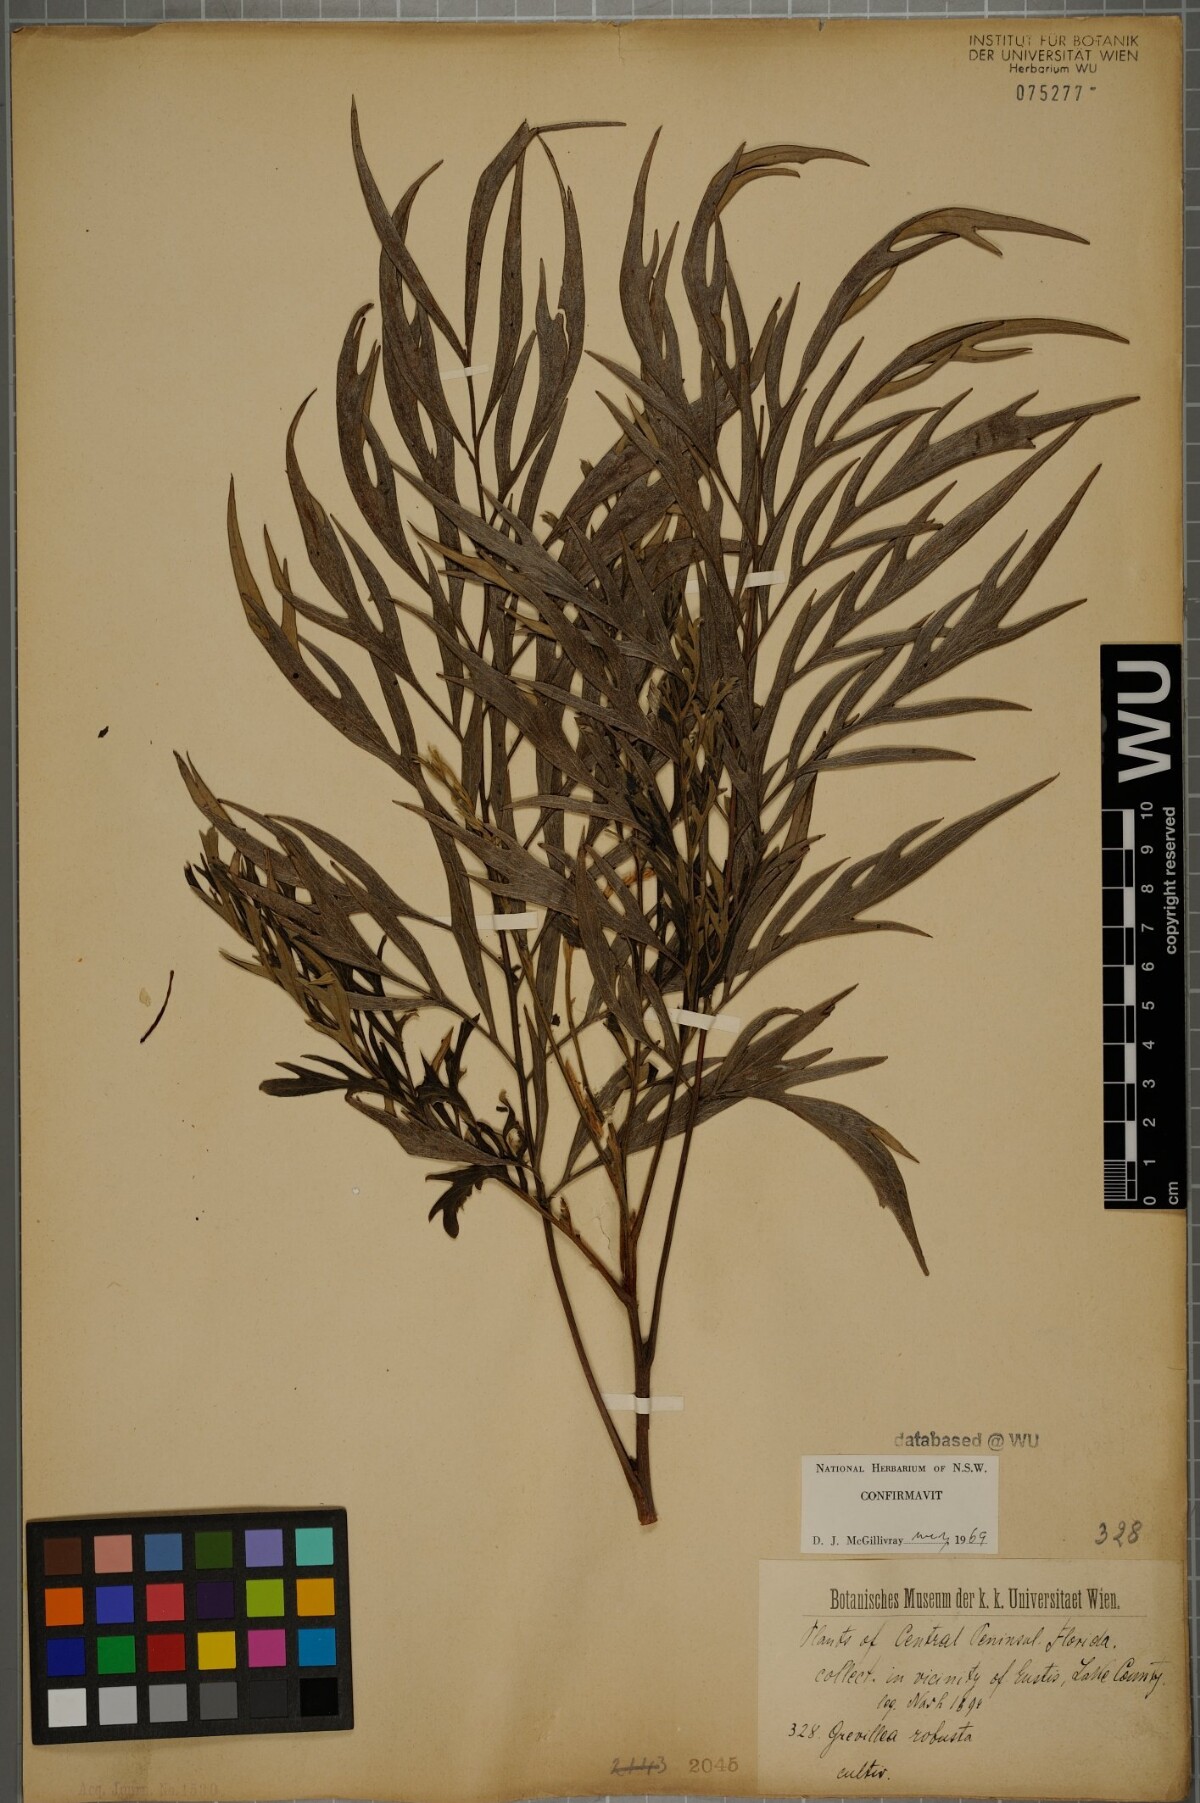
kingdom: Plantae
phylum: Tracheophyta
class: Magnoliopsida
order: Proteales
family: Proteaceae
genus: Grevillea
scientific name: Grevillea robusta
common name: Silkoak
